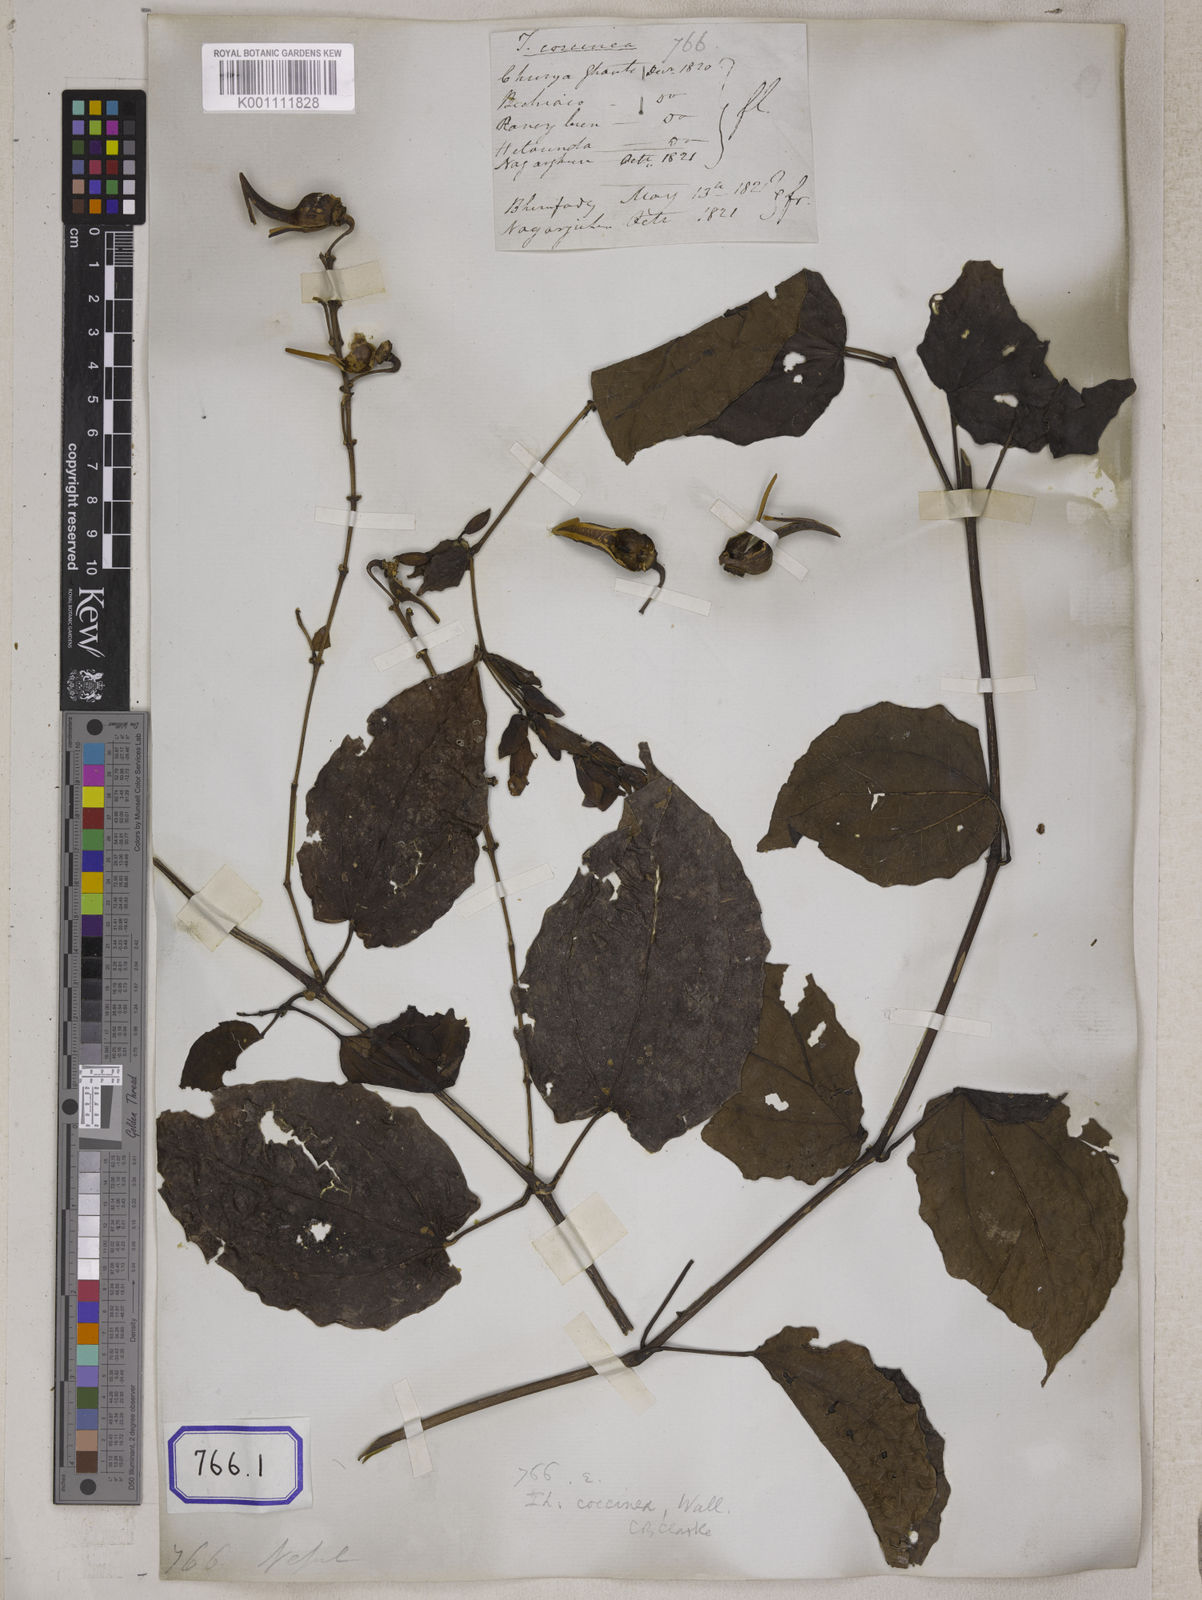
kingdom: Plantae
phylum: Tracheophyta
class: Magnoliopsida
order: Lamiales
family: Acanthaceae
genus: Thunbergia
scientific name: Thunbergia
